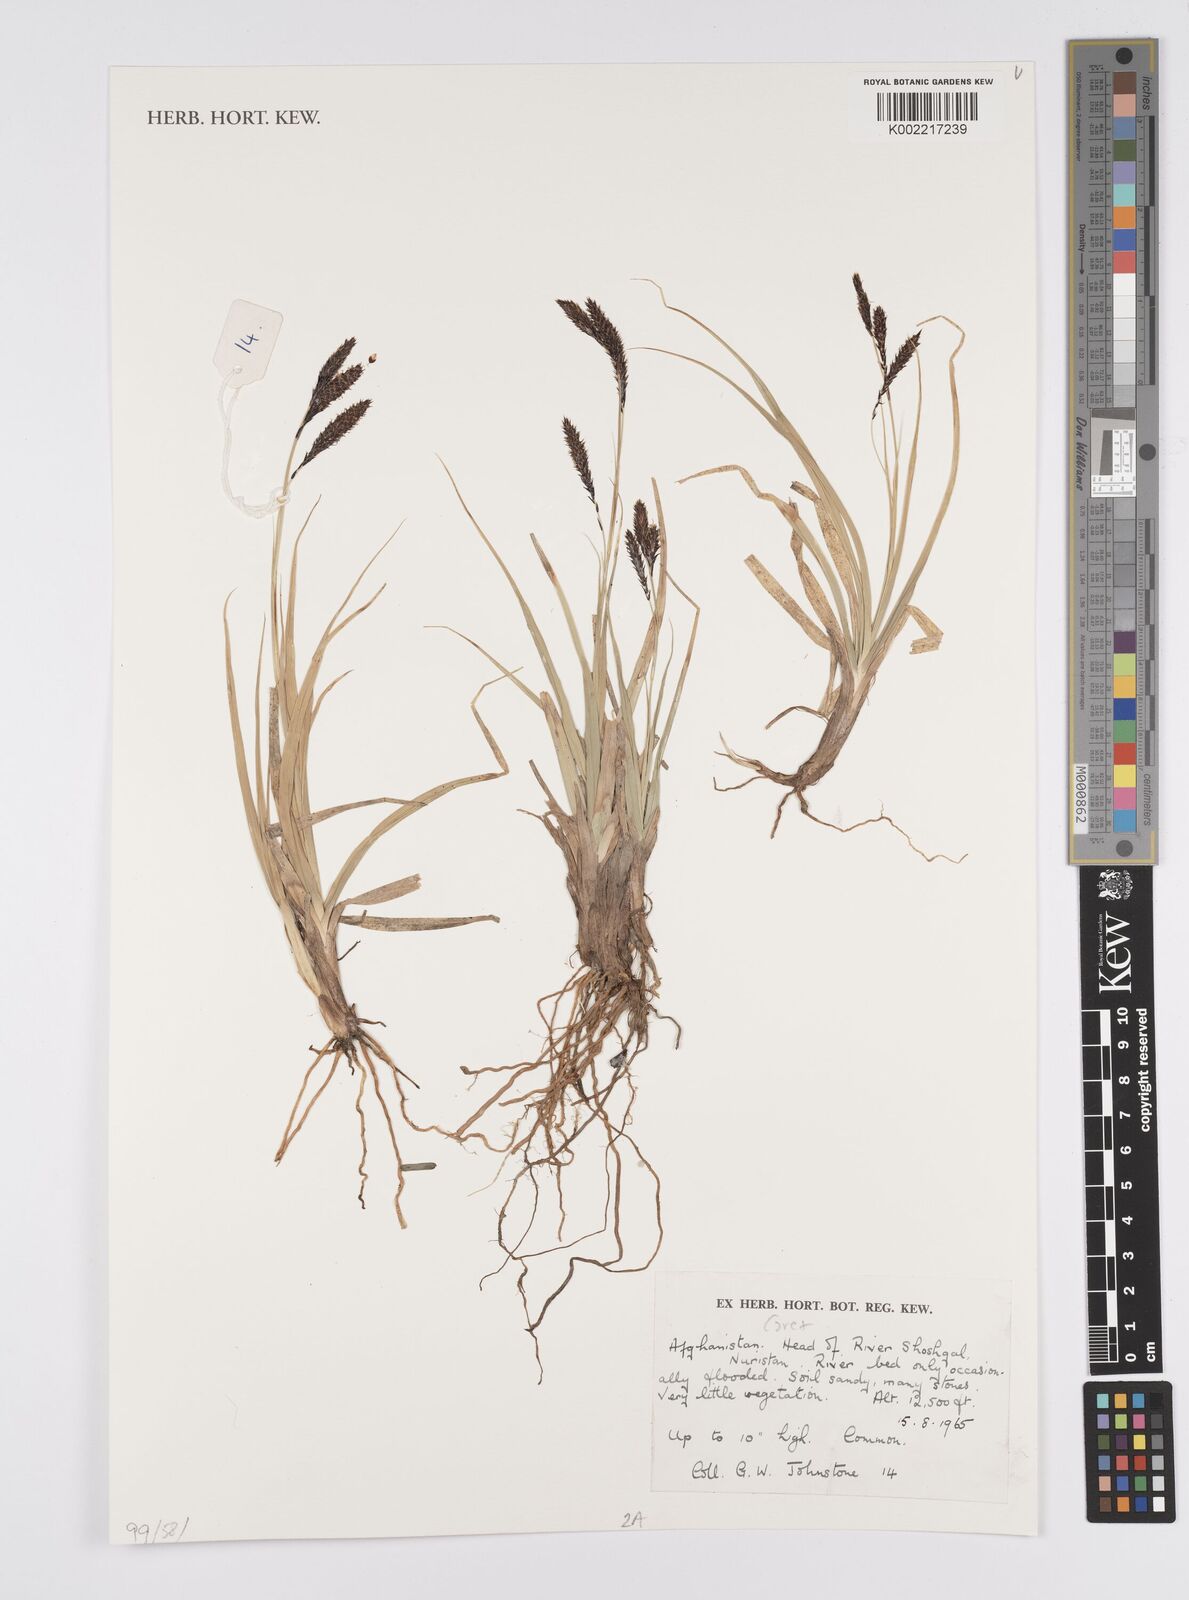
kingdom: Plantae
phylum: Tracheophyta
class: Liliopsida
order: Poales
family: Cyperaceae
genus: Carex
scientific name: Carex
